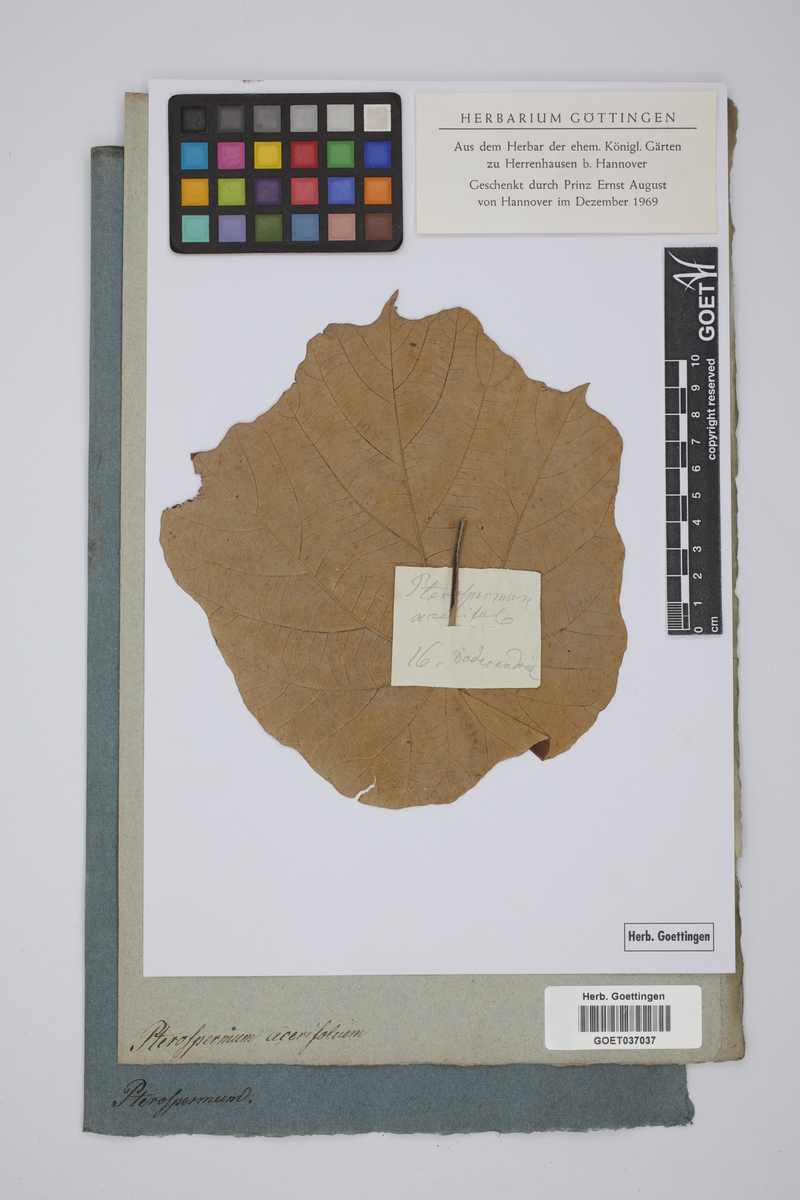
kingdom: Plantae
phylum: Tracheophyta
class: Magnoliopsida
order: Malvales
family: Malvaceae
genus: Pterospermum
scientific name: Pterospermum acerifolium
